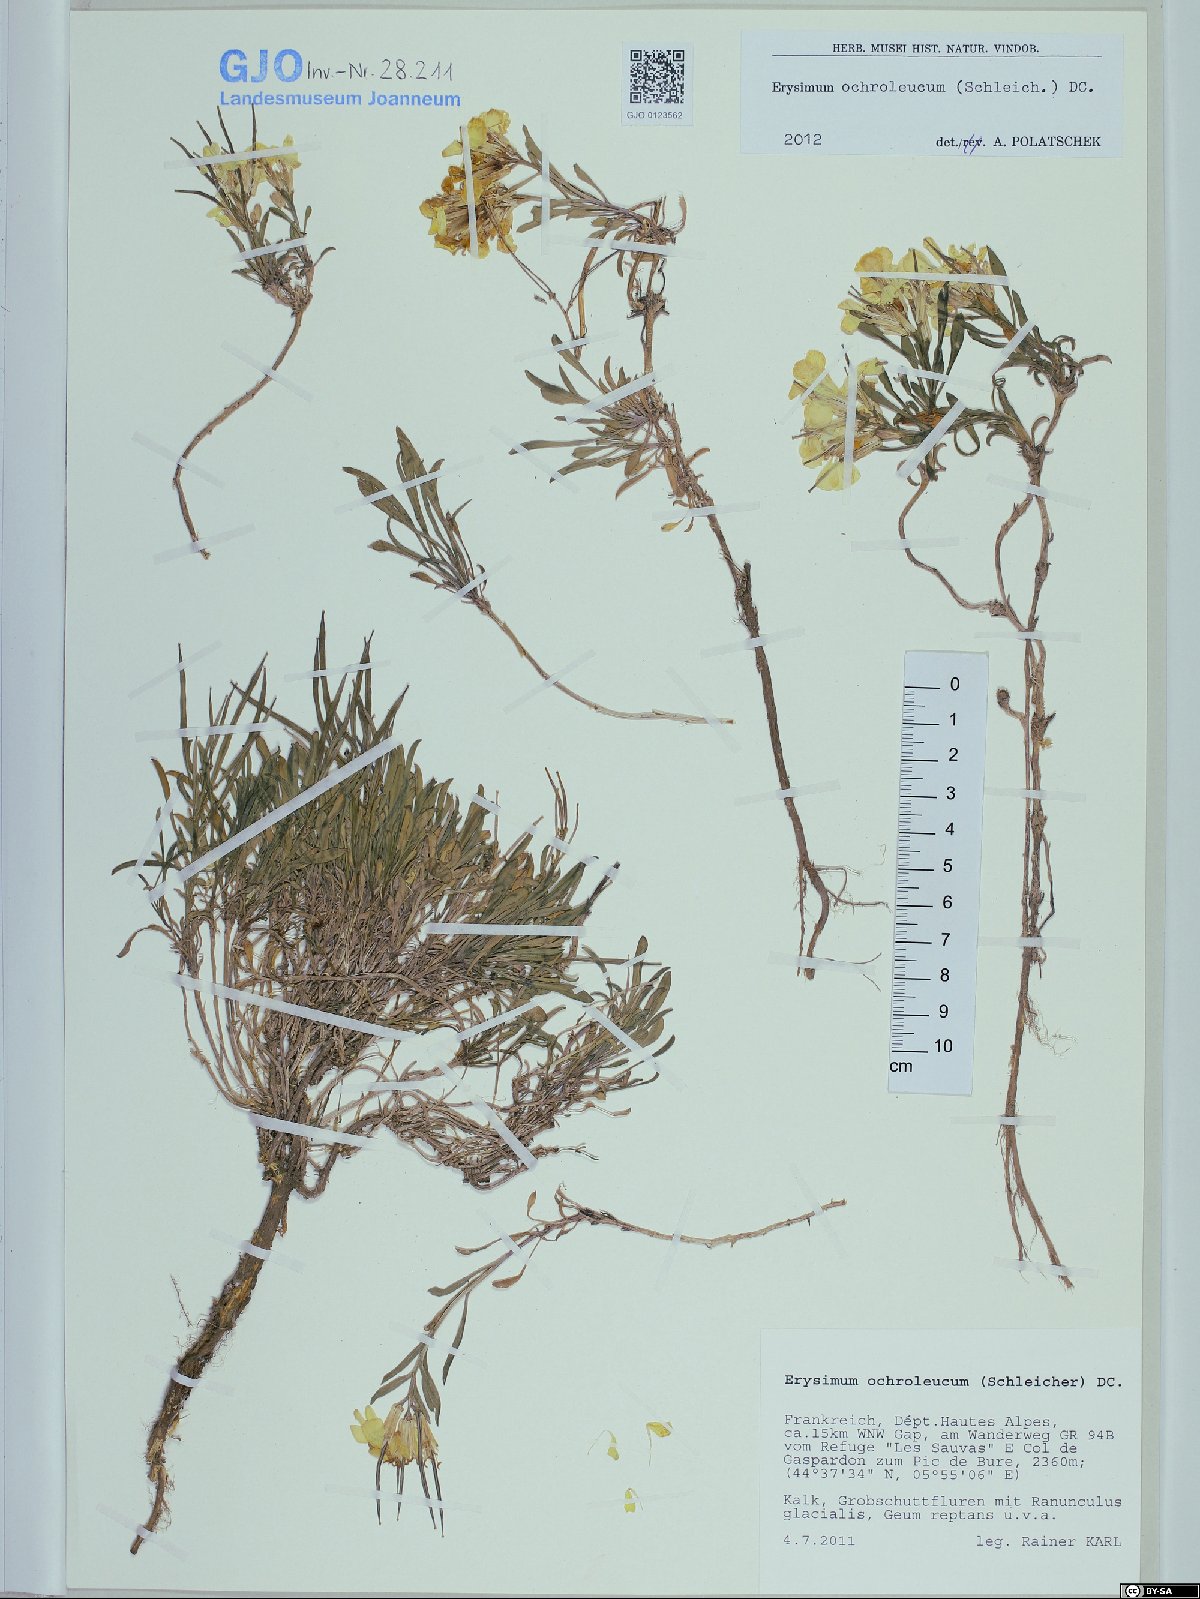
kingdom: Plantae
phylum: Tracheophyta
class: Magnoliopsida
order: Brassicales
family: Brassicaceae
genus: Erysimum
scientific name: Erysimum humile
